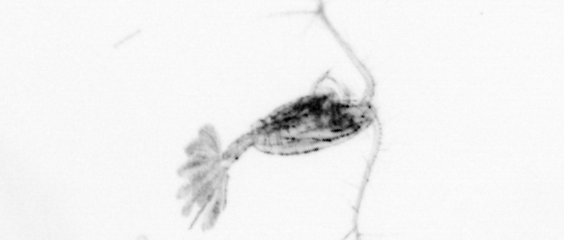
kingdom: Animalia
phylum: Arthropoda
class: Copepoda
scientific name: Copepoda
